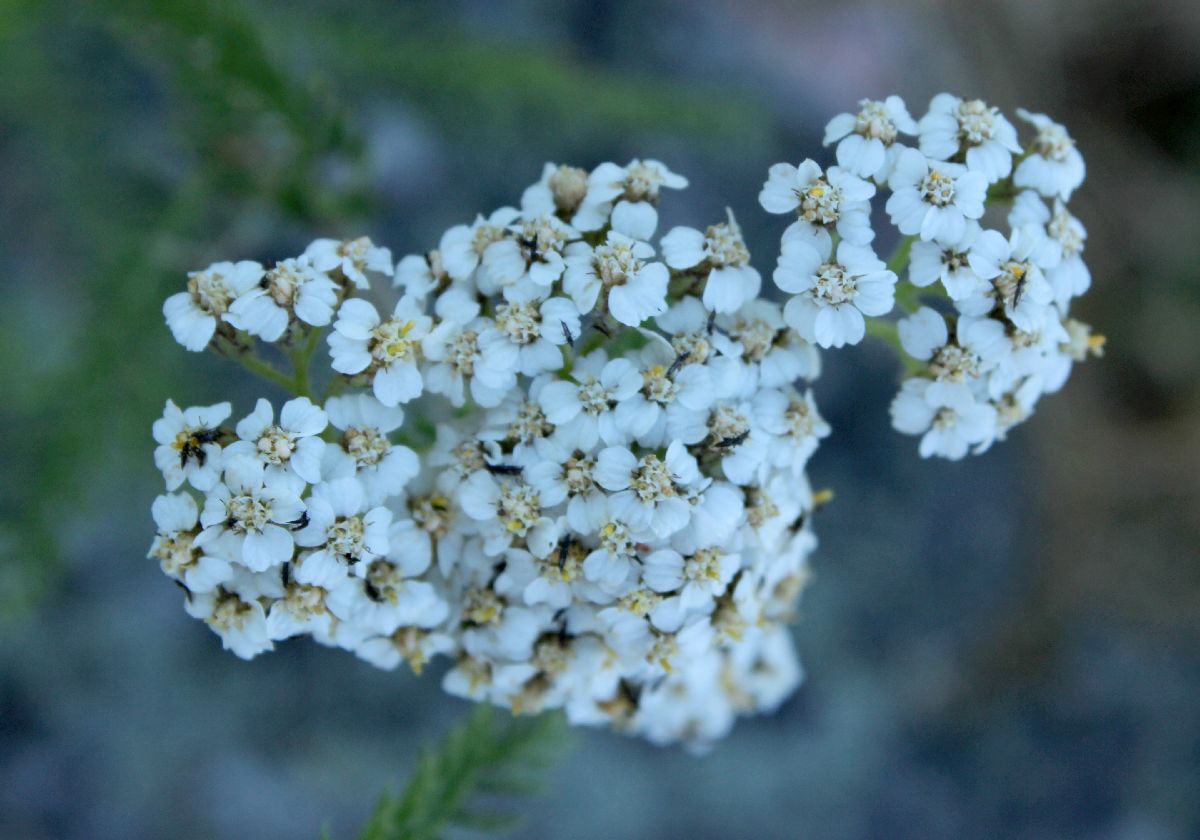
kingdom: Plantae
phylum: Tracheophyta
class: Magnoliopsida
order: Asterales
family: Asteraceae
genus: Achillea
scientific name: Achillea millefolium
